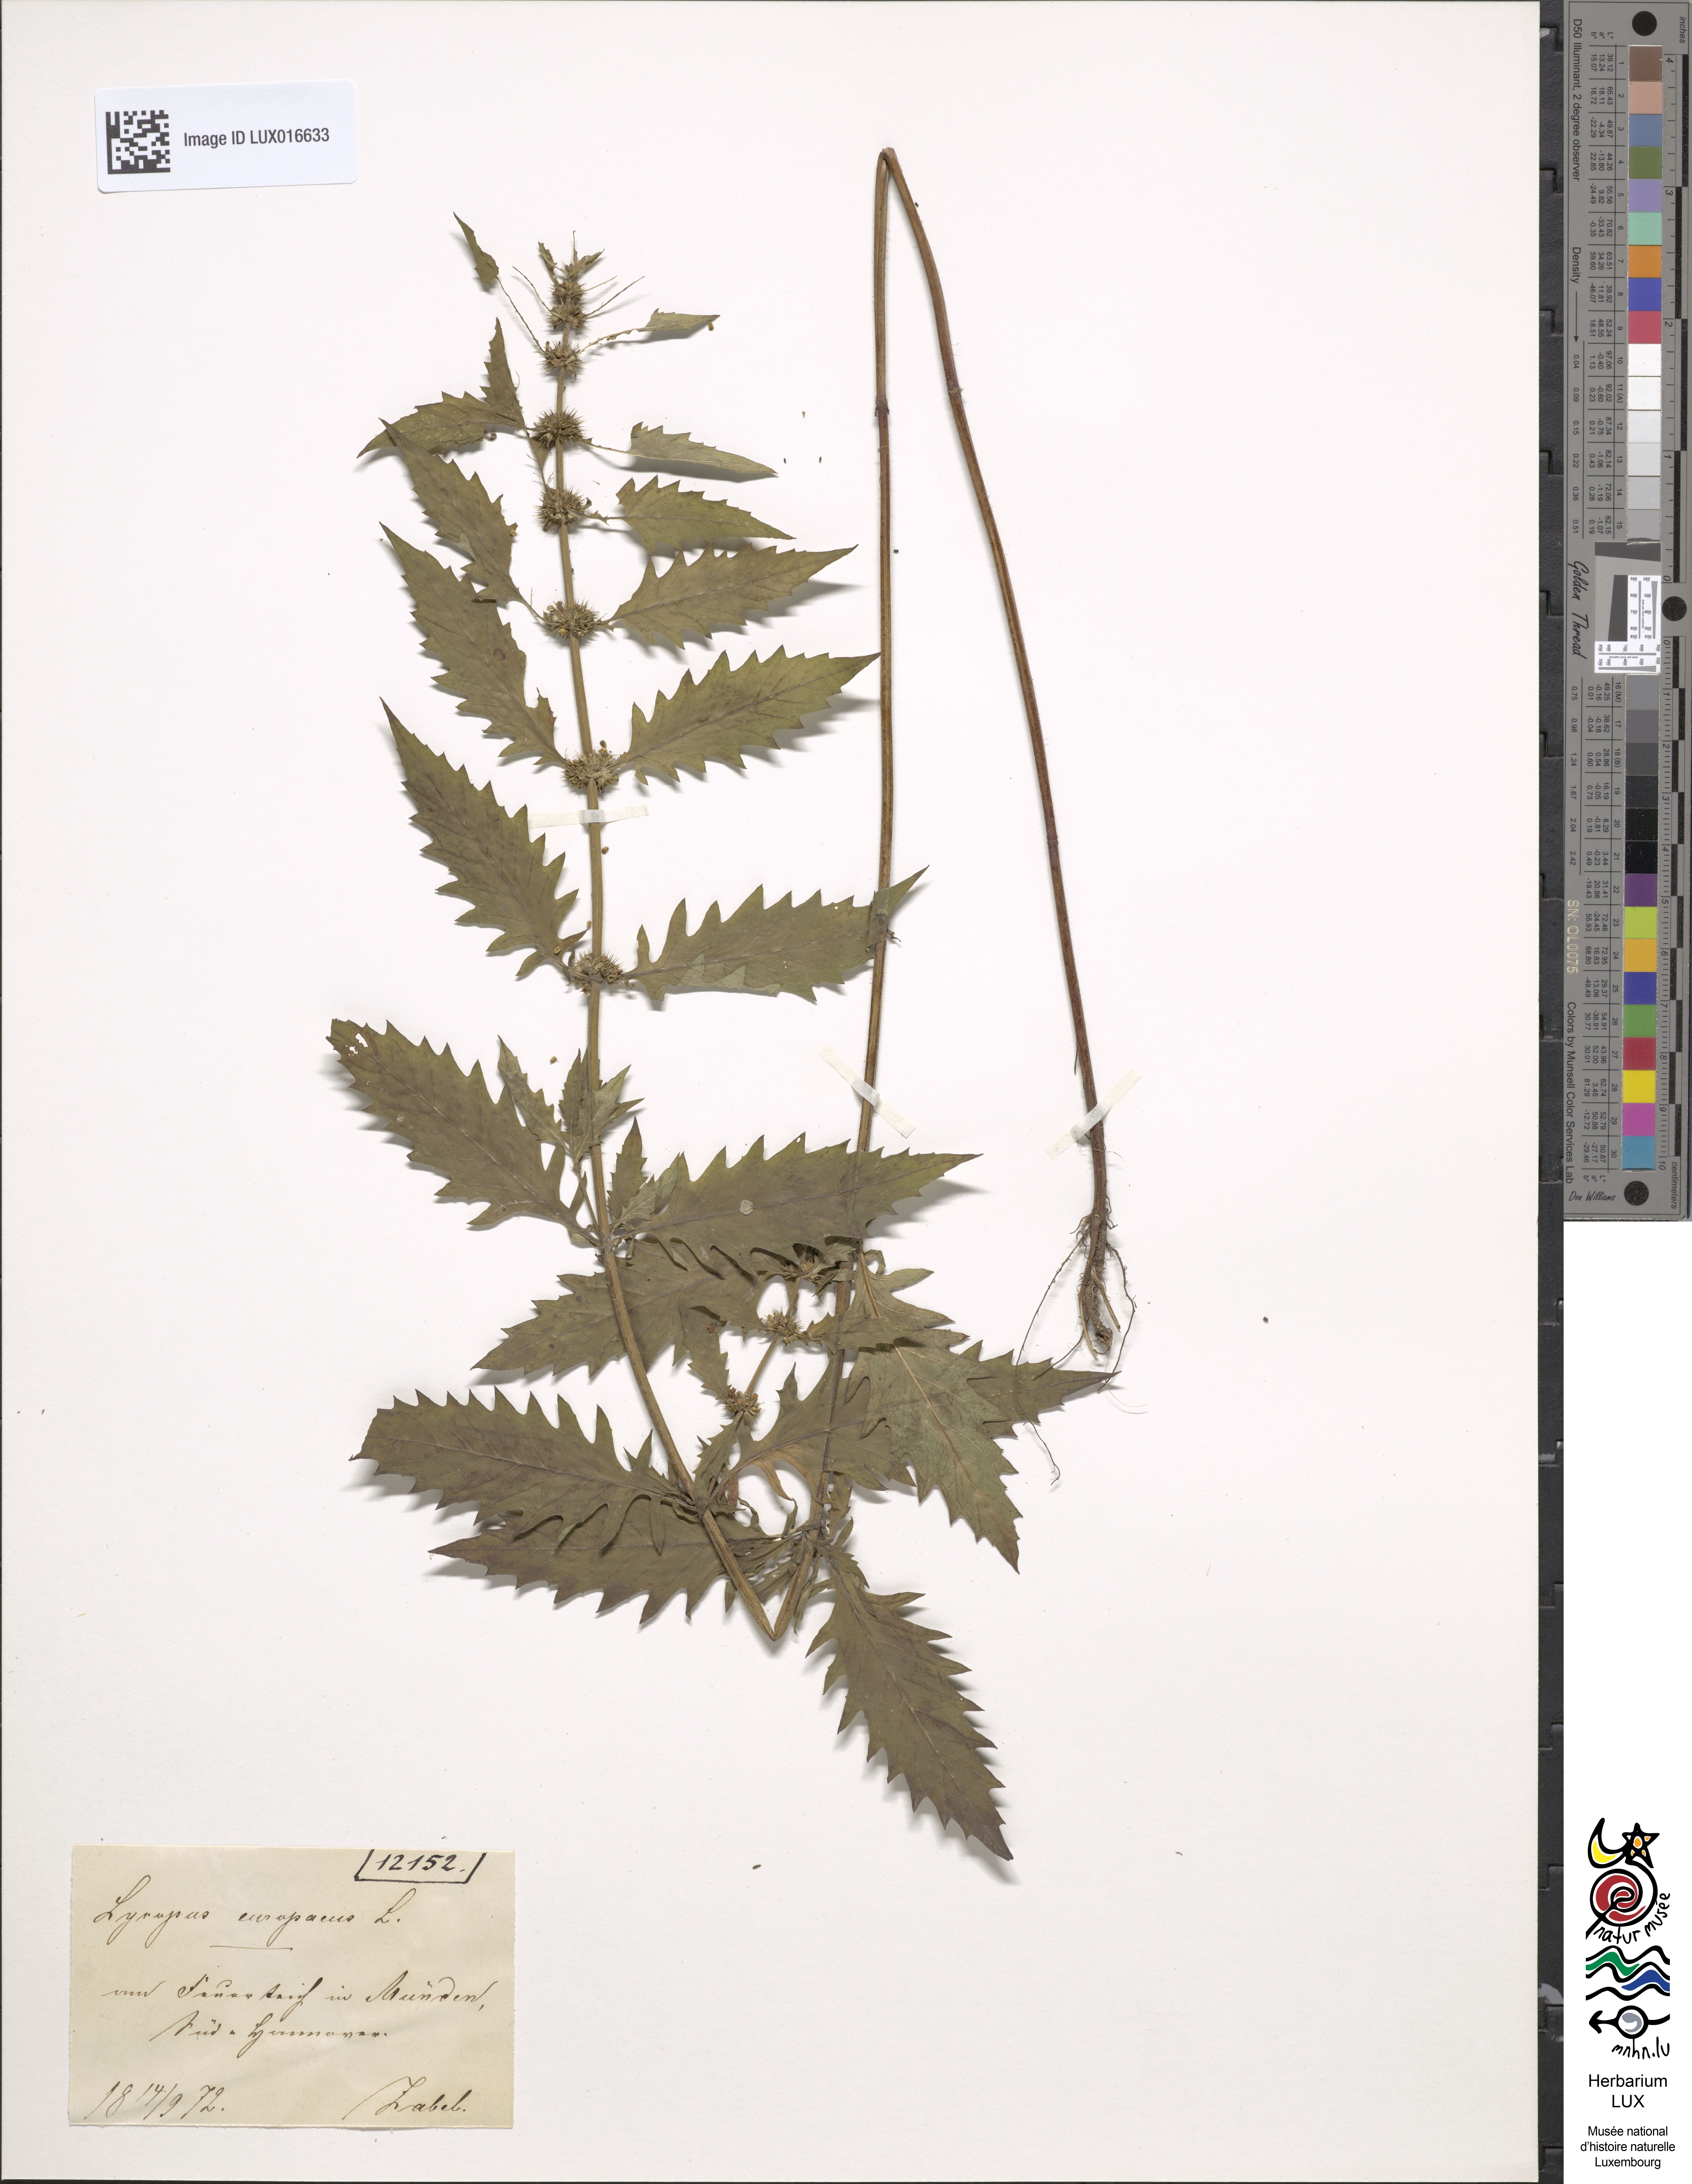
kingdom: Plantae
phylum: Tracheophyta
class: Magnoliopsida
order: Lamiales
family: Lamiaceae
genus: Lycopus
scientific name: Lycopus europaeus
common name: European bugleweed
